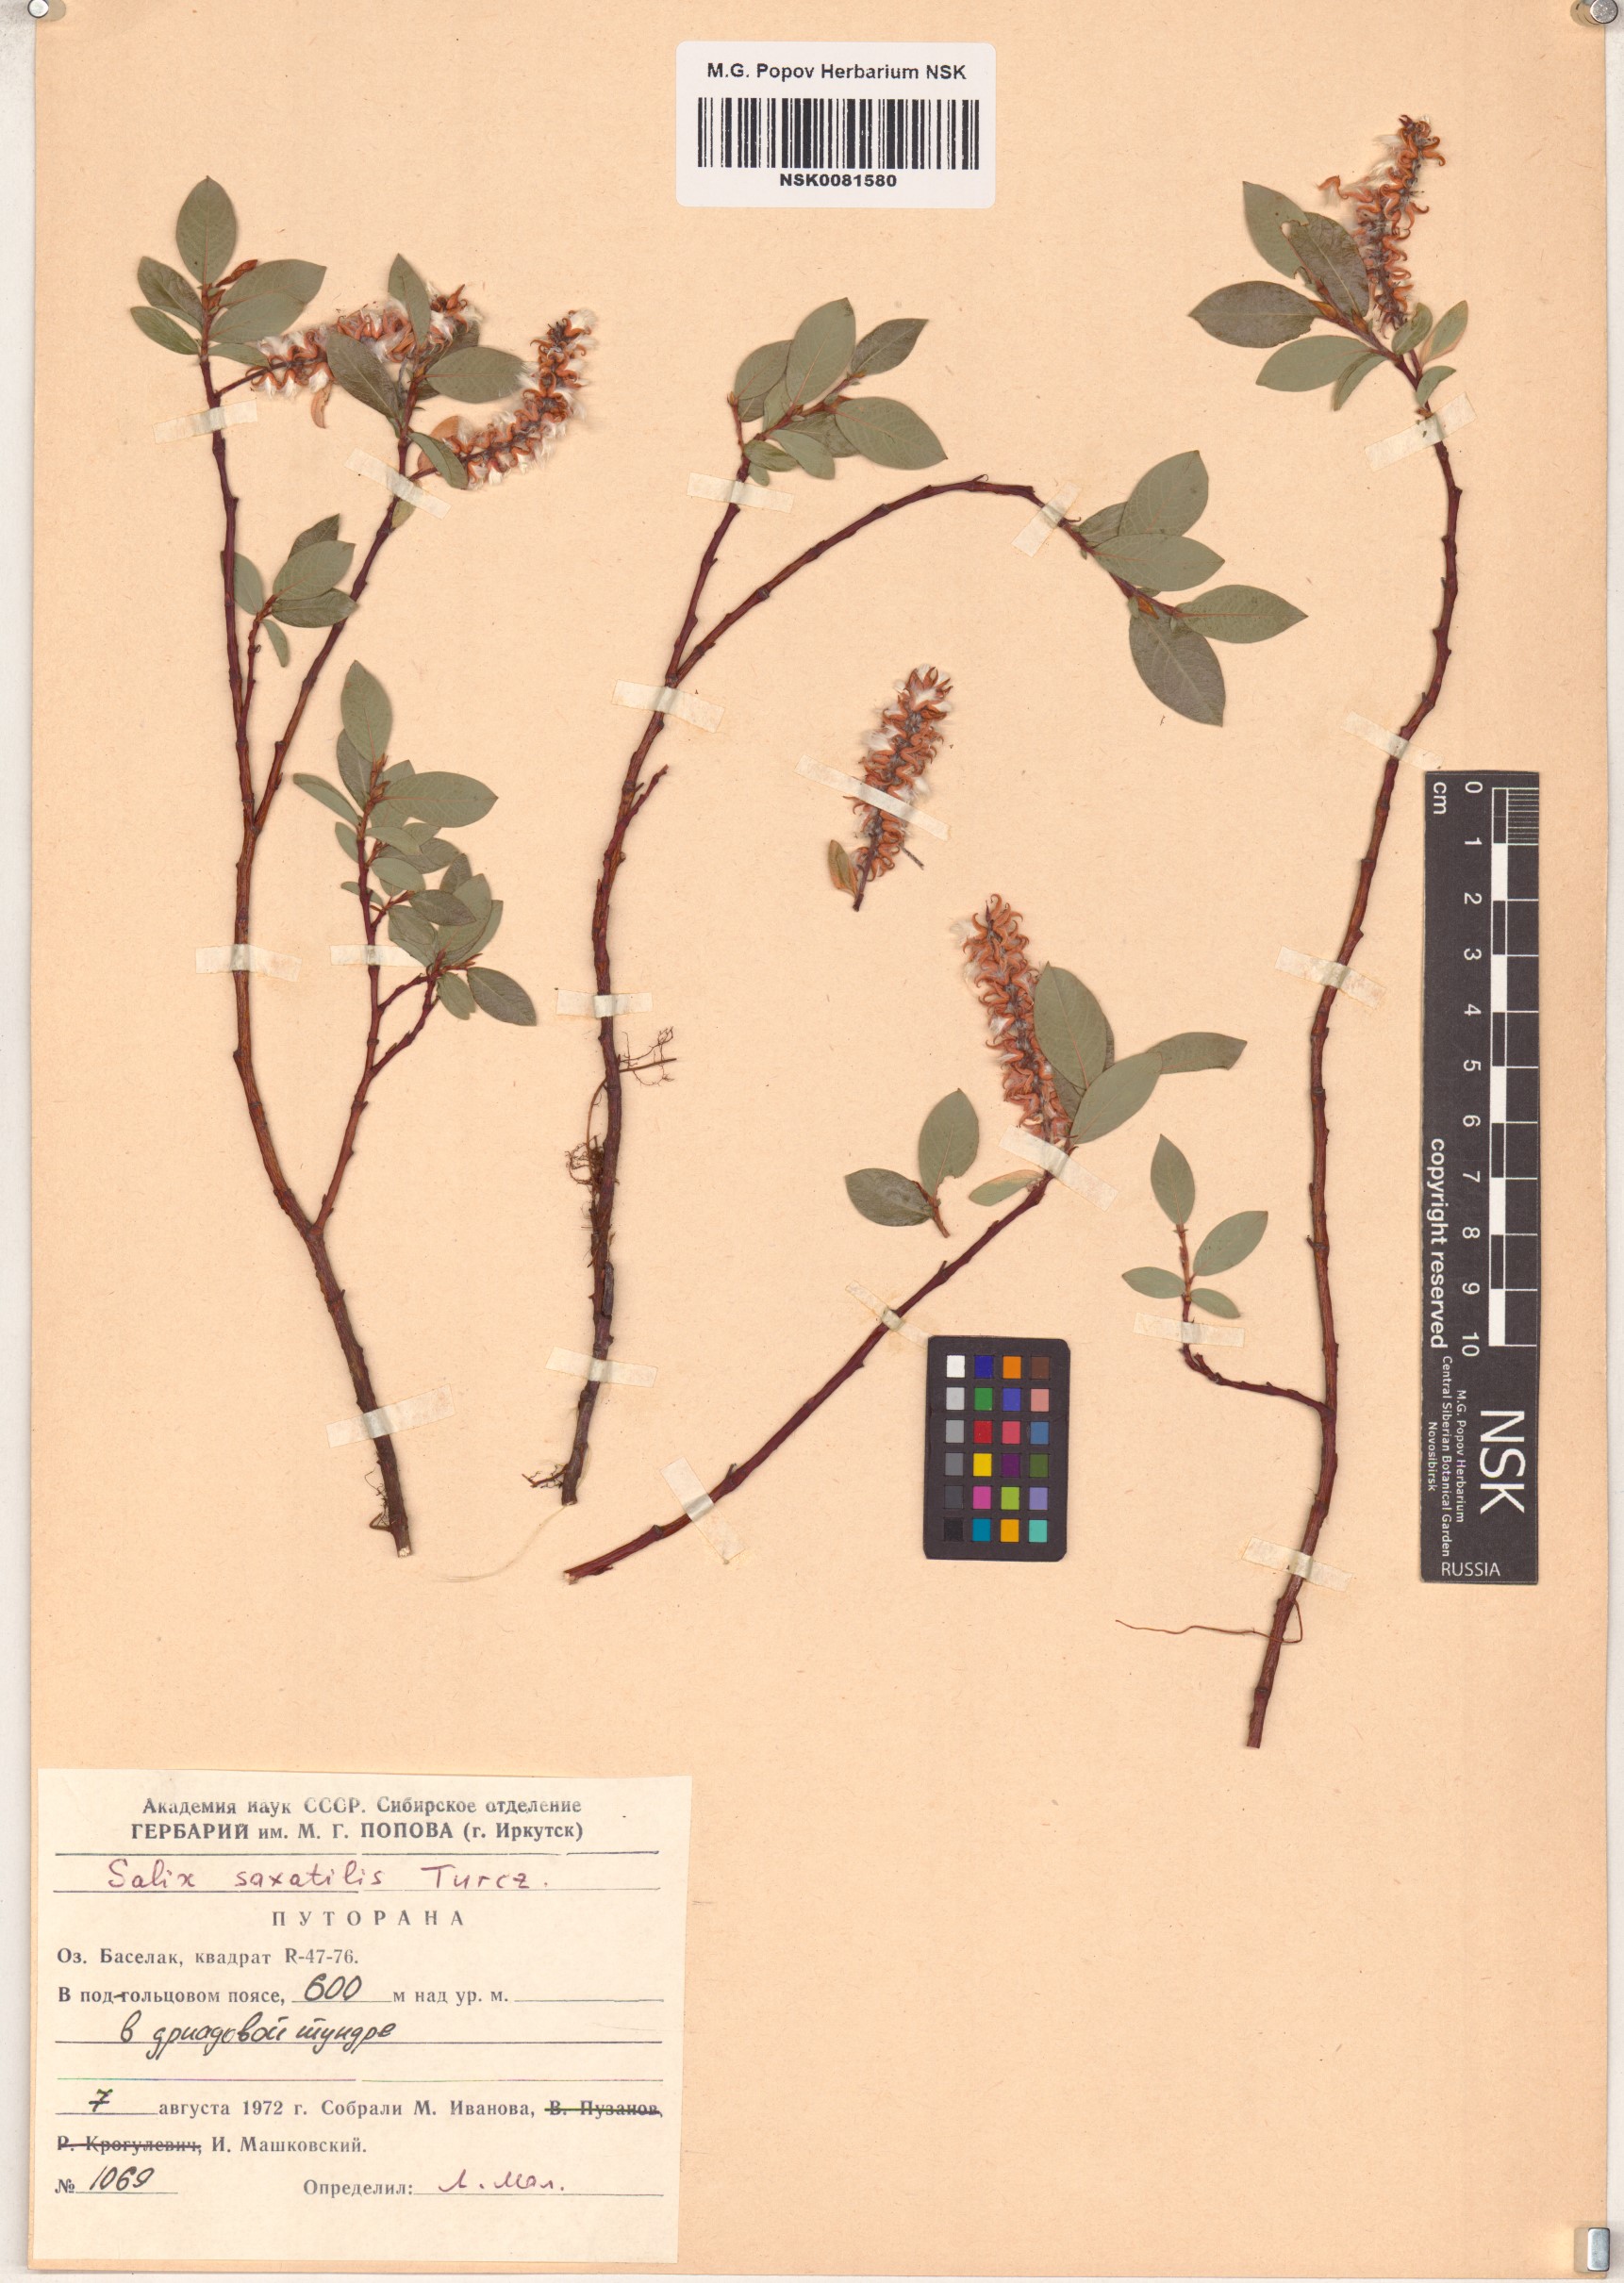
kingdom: Plantae
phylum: Tracheophyta
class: Magnoliopsida
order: Malpighiales
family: Salicaceae
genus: Salix
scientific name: Salix saxatilis
